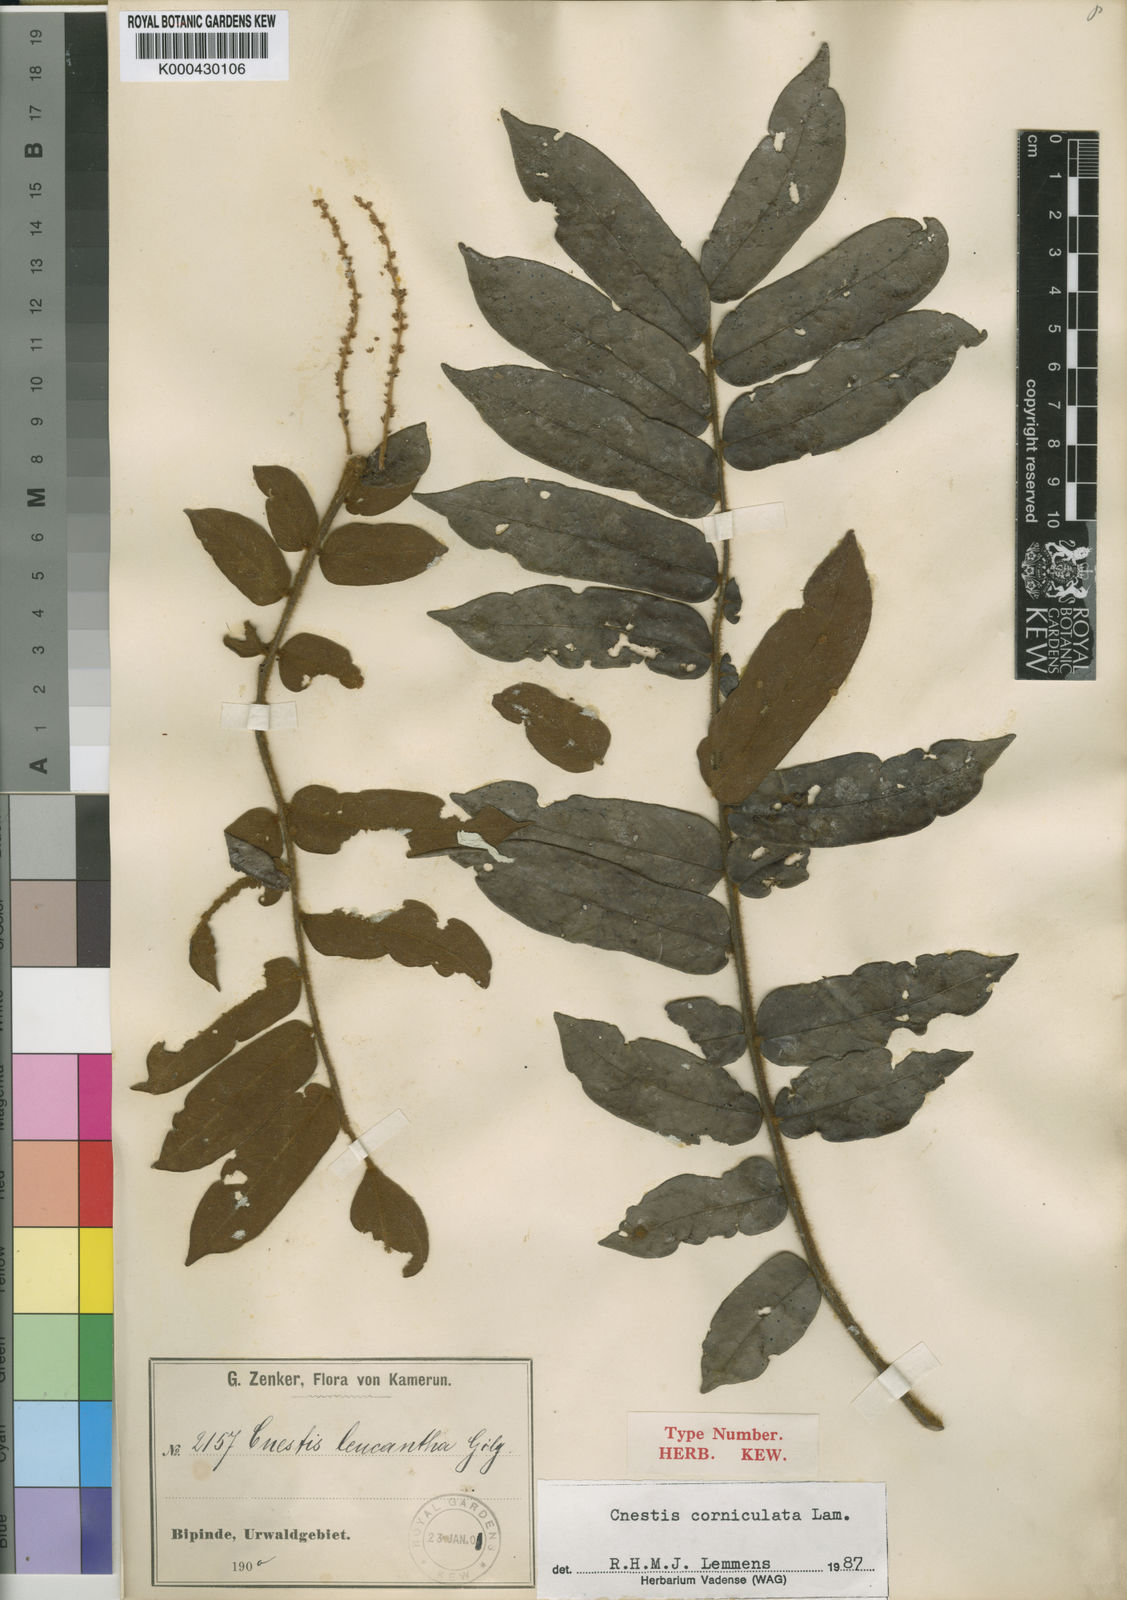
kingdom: Plantae
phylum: Tracheophyta
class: Magnoliopsida
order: Oxalidales
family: Connaraceae
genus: Cnestis
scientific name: Cnestis corniculata
